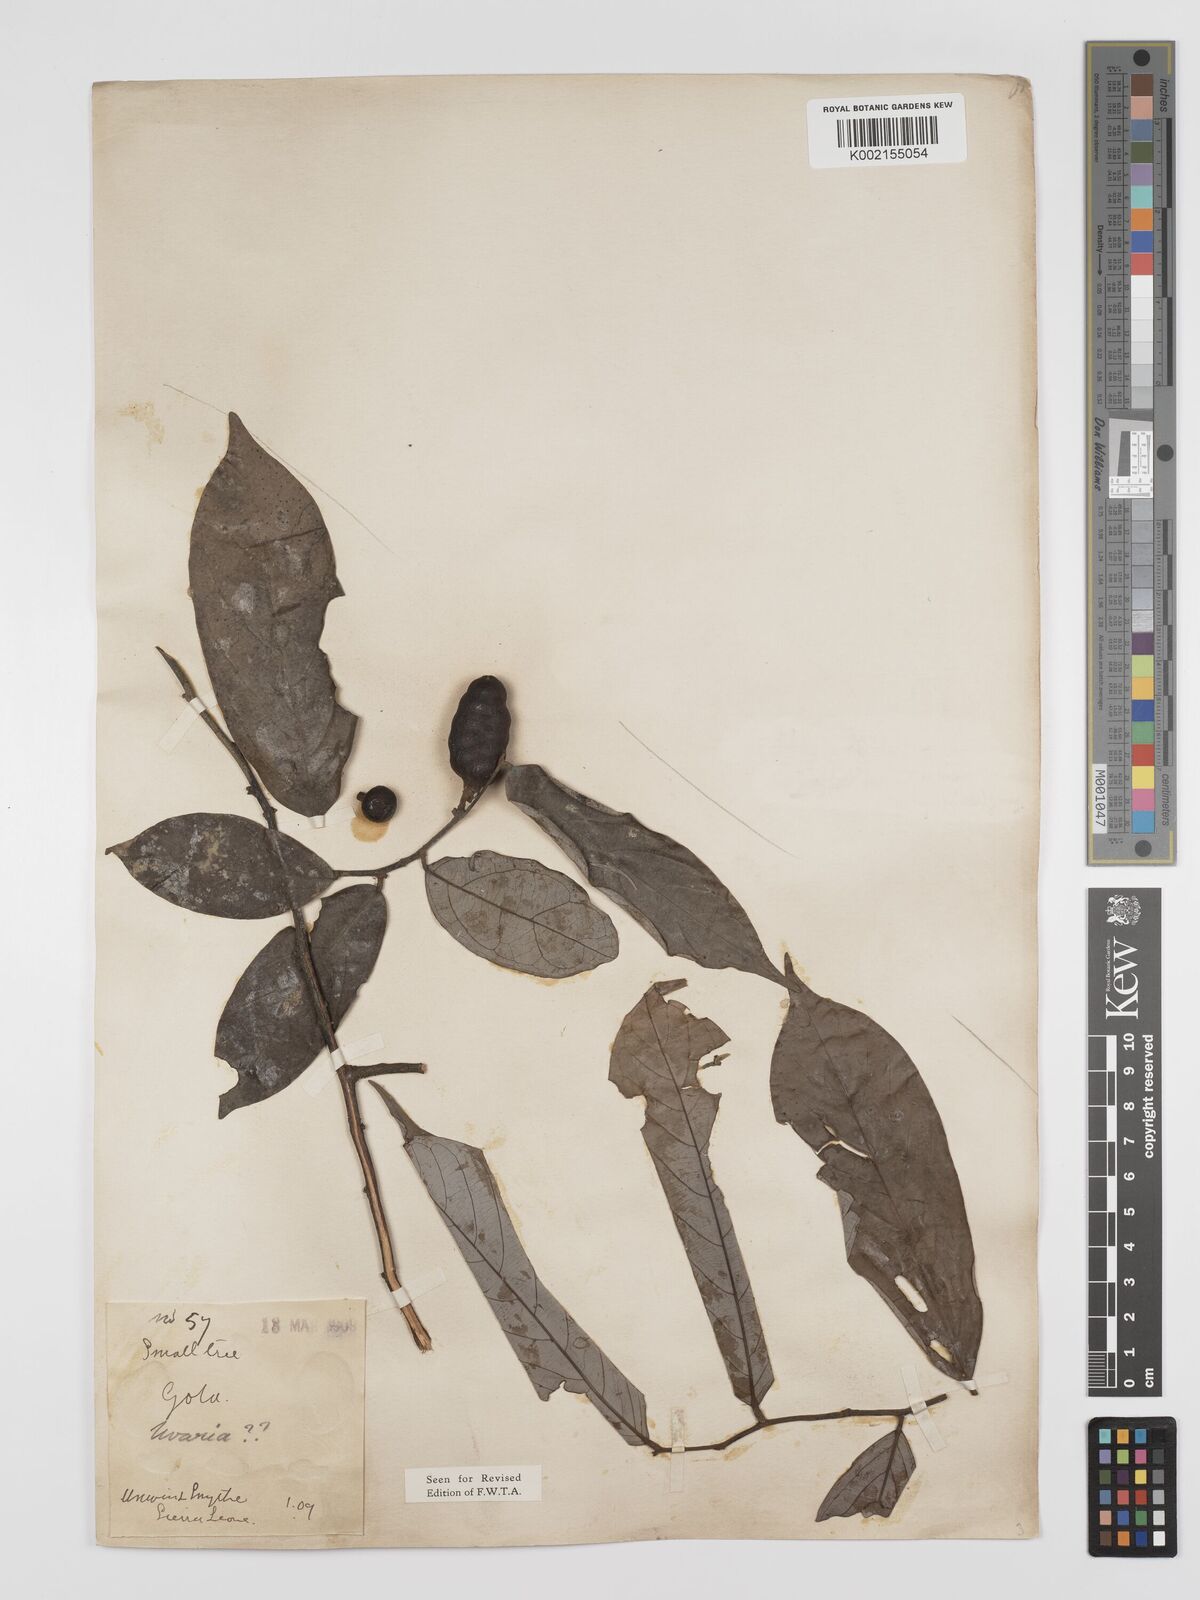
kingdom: Plantae
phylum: Tracheophyta
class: Magnoliopsida
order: Magnoliales
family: Annonaceae
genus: Polyceratocarpus
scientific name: Polyceratocarpus parviflorus
